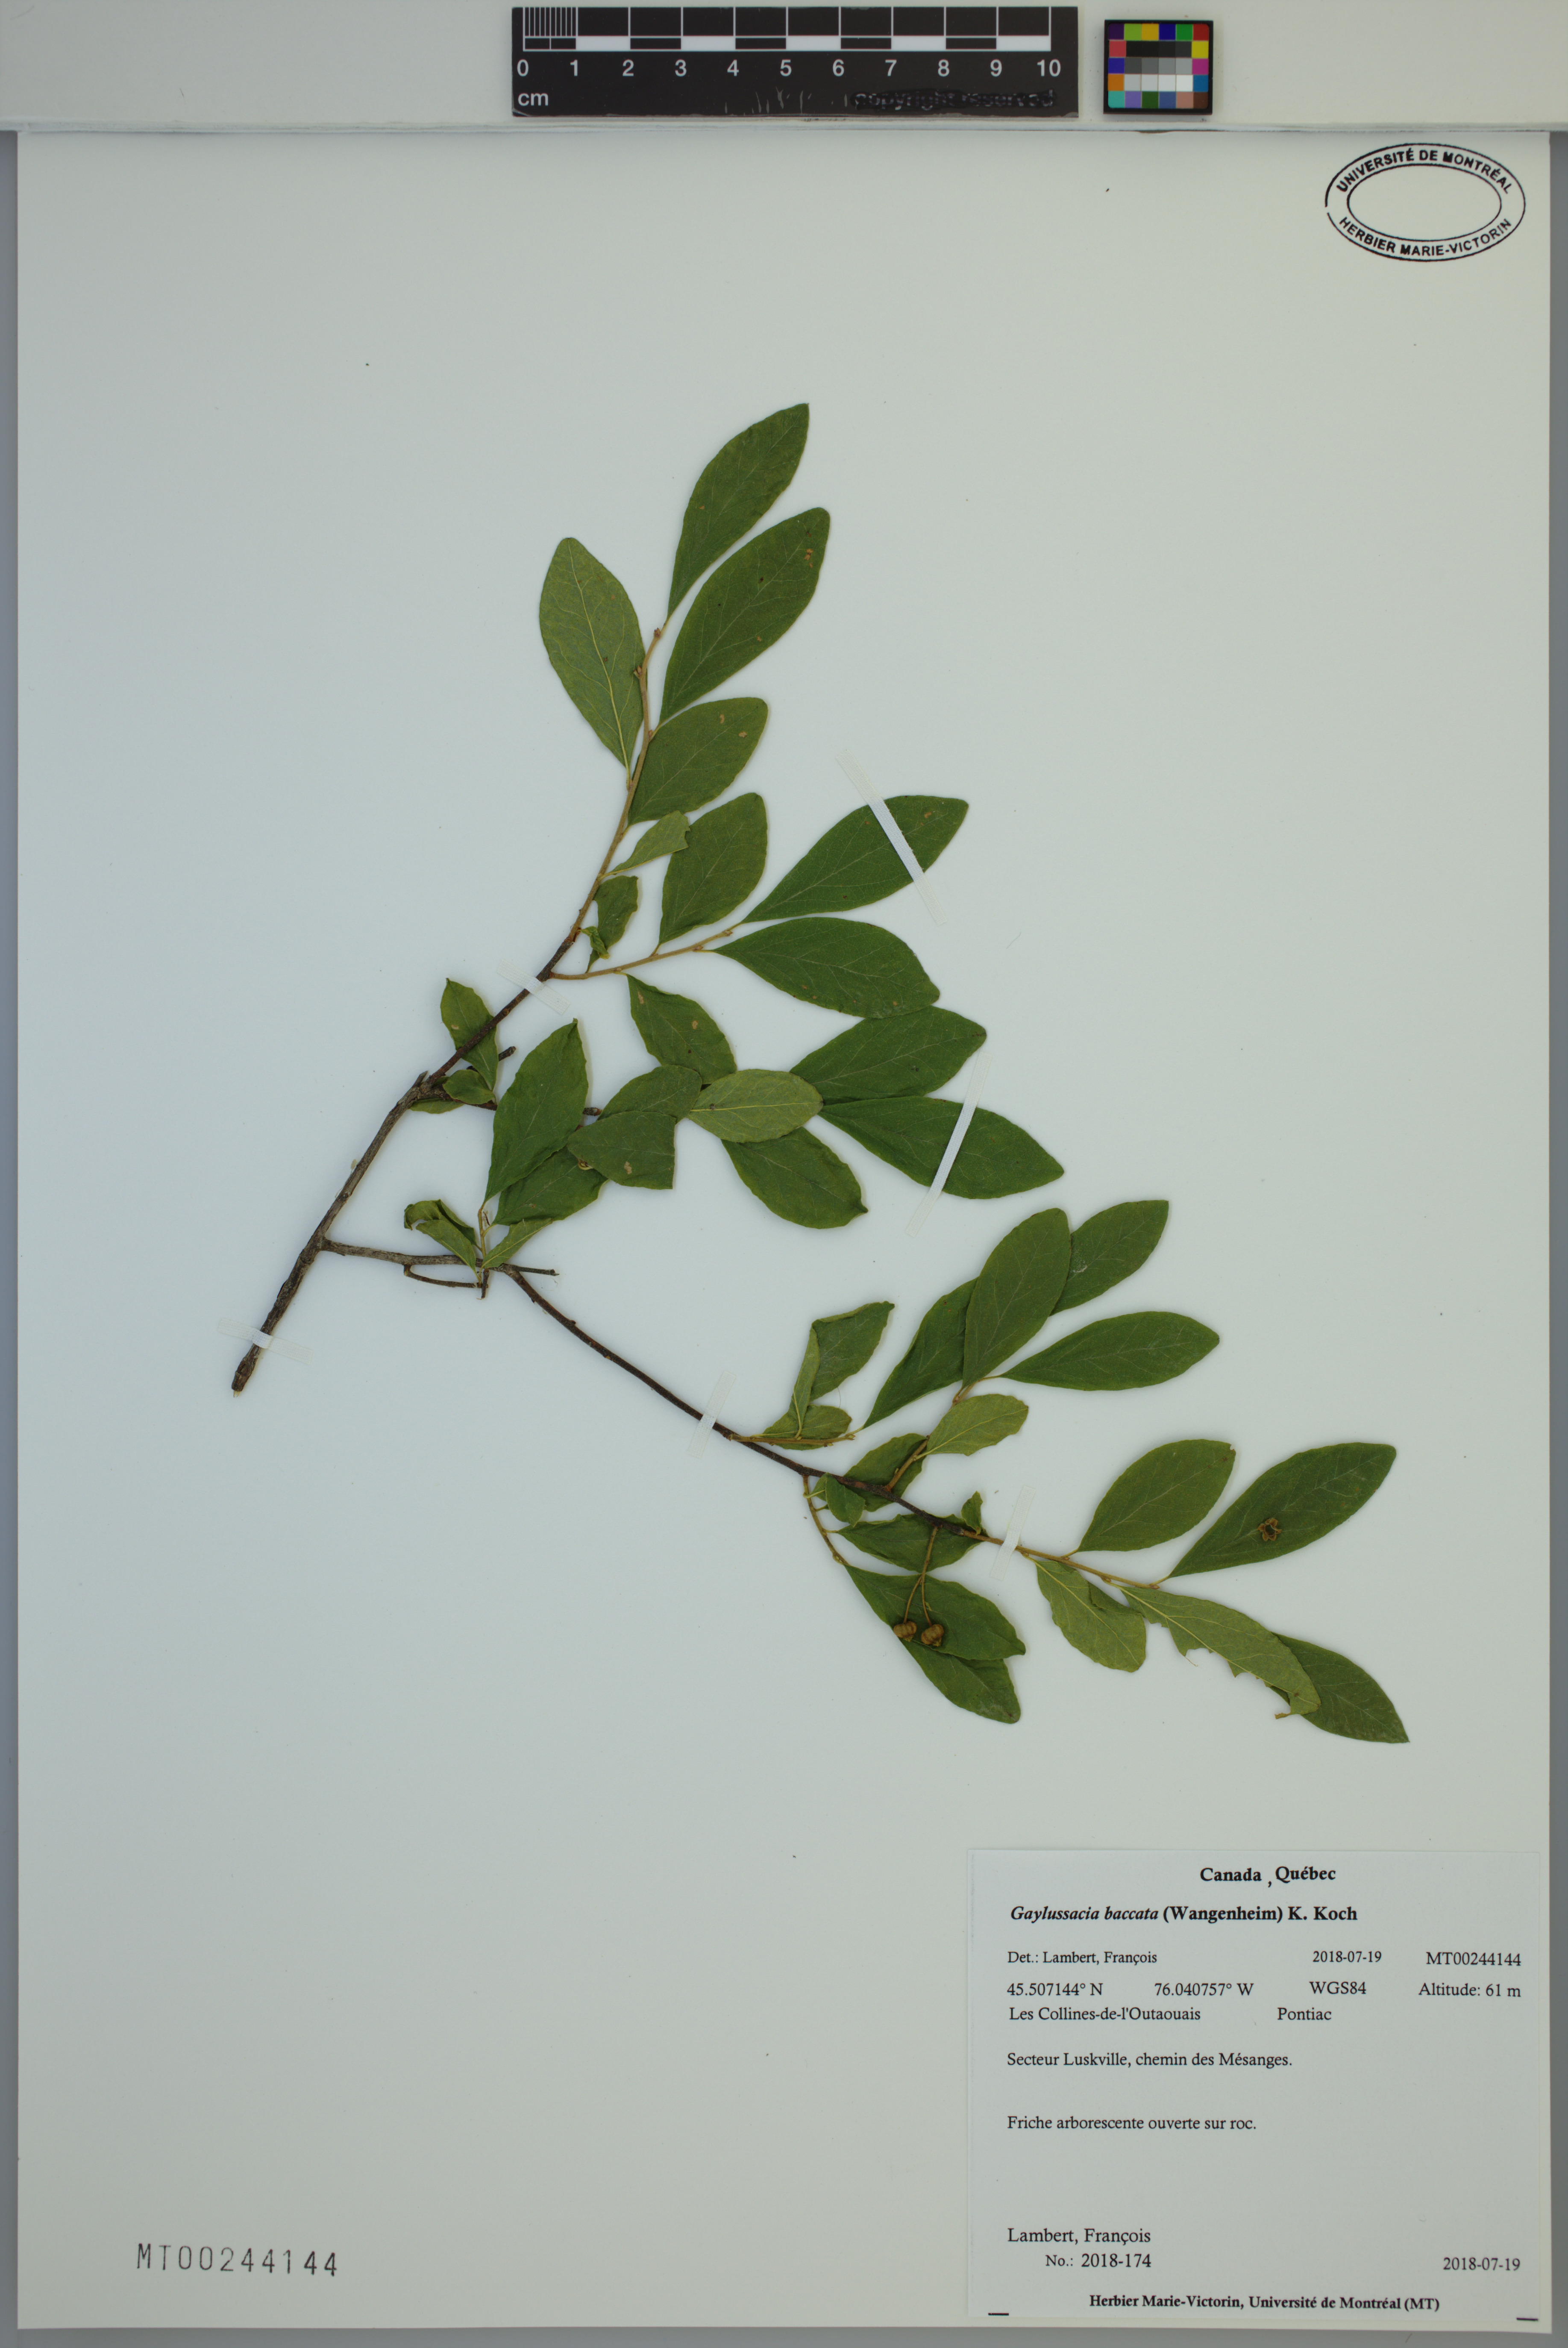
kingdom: Plantae
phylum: Tracheophyta
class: Magnoliopsida
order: Ericales
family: Ericaceae
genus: Gaylussacia
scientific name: Gaylussacia baccata
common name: Black huckleberry
